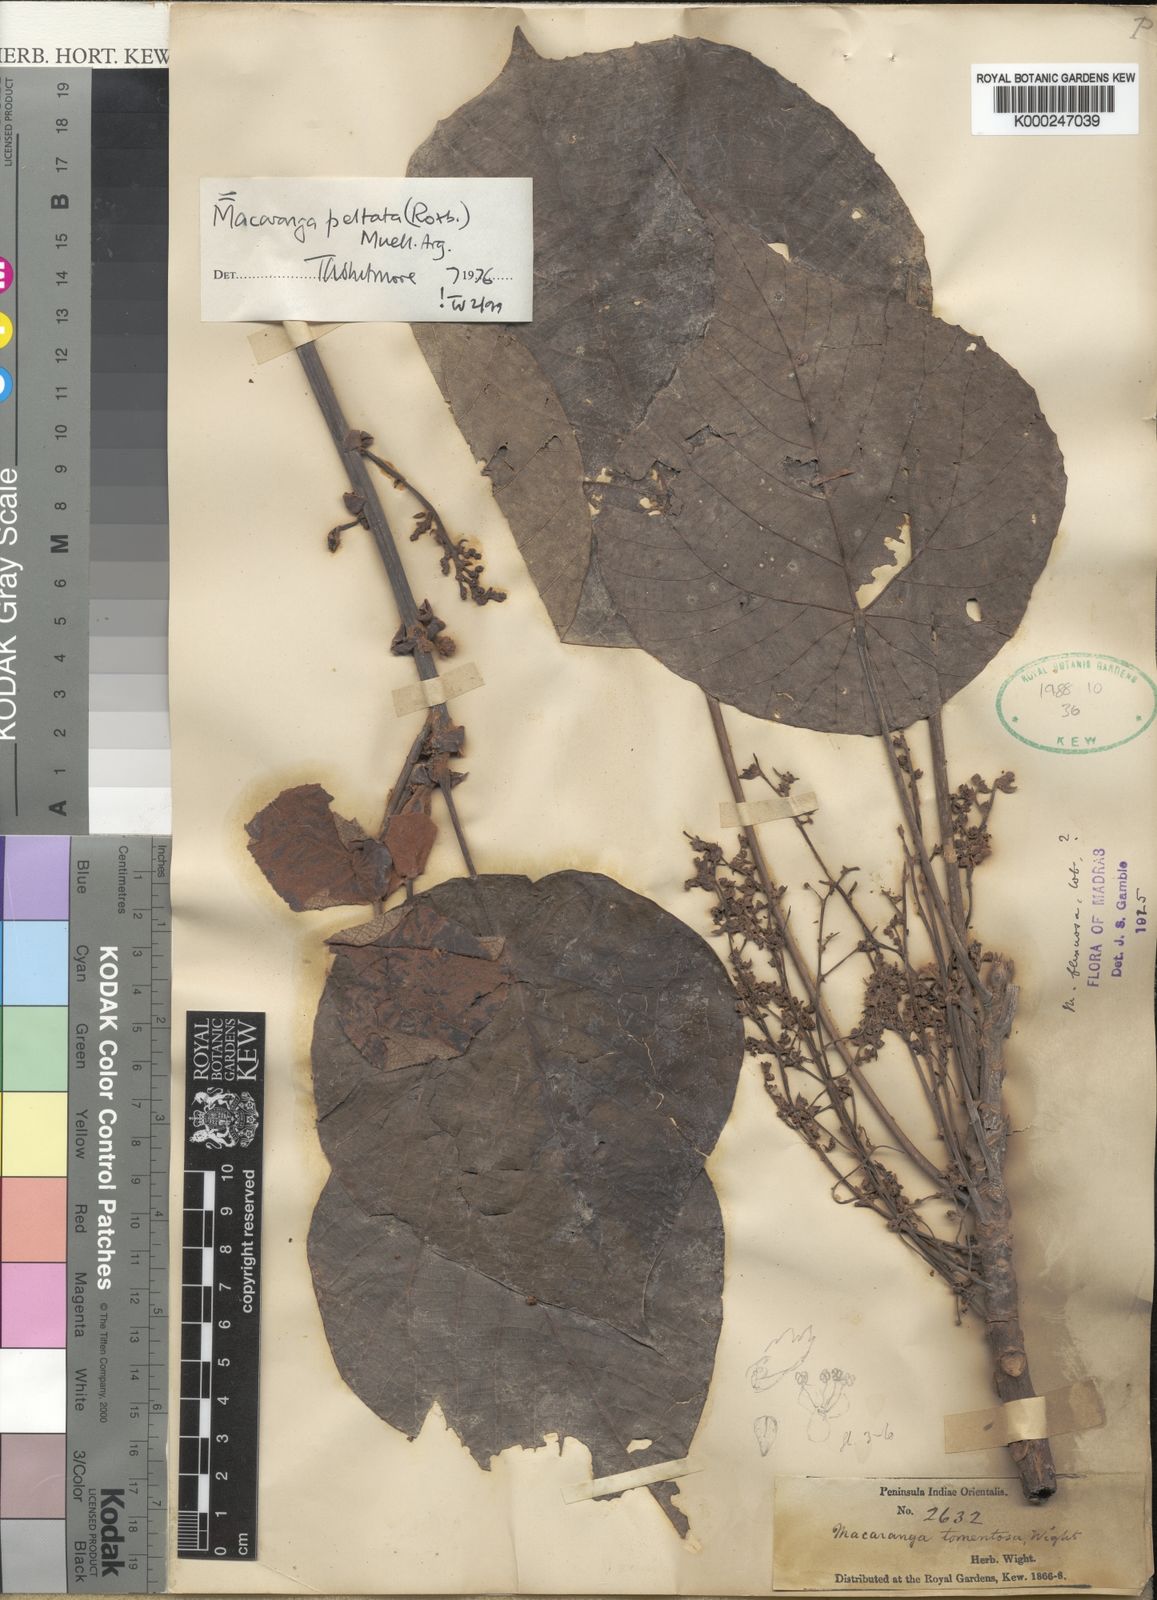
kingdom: Plantae
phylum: Tracheophyta
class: Magnoliopsida
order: Malpighiales
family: Euphorbiaceae
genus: Macaranga
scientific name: Macaranga
